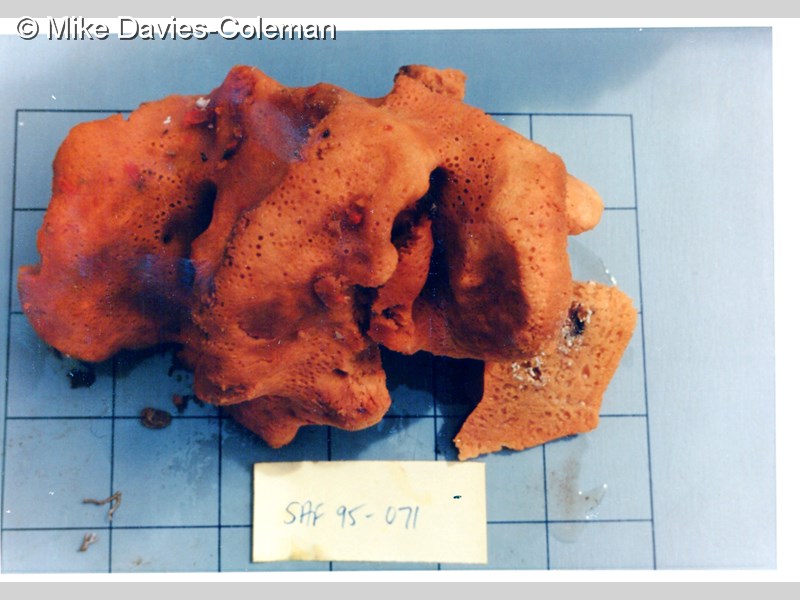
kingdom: Animalia
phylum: Porifera
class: Demospongiae
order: Poecilosclerida
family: Tedaniidae
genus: Tedania
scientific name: Tedania tubulifera
